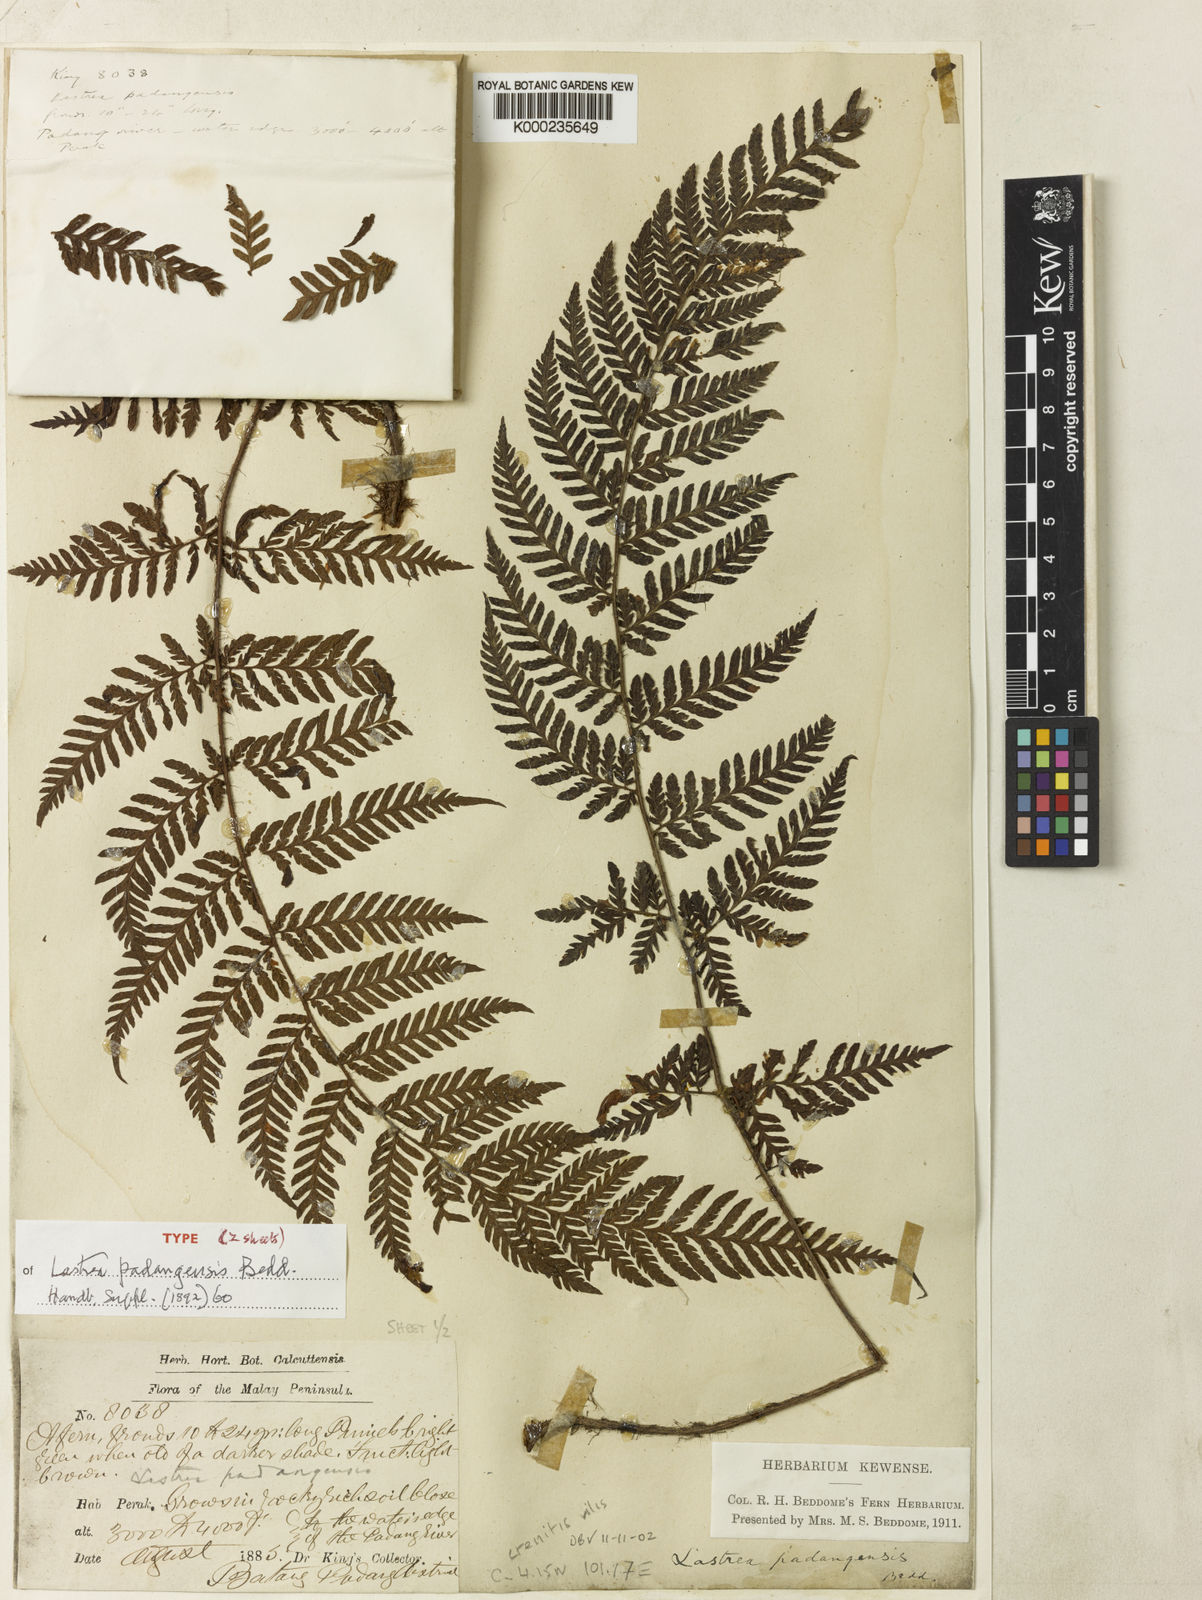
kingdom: Plantae
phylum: Tracheophyta
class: Polypodiopsida
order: Polypodiales
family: Dryopteridaceae
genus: Ctenitis
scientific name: Ctenitis vilis
